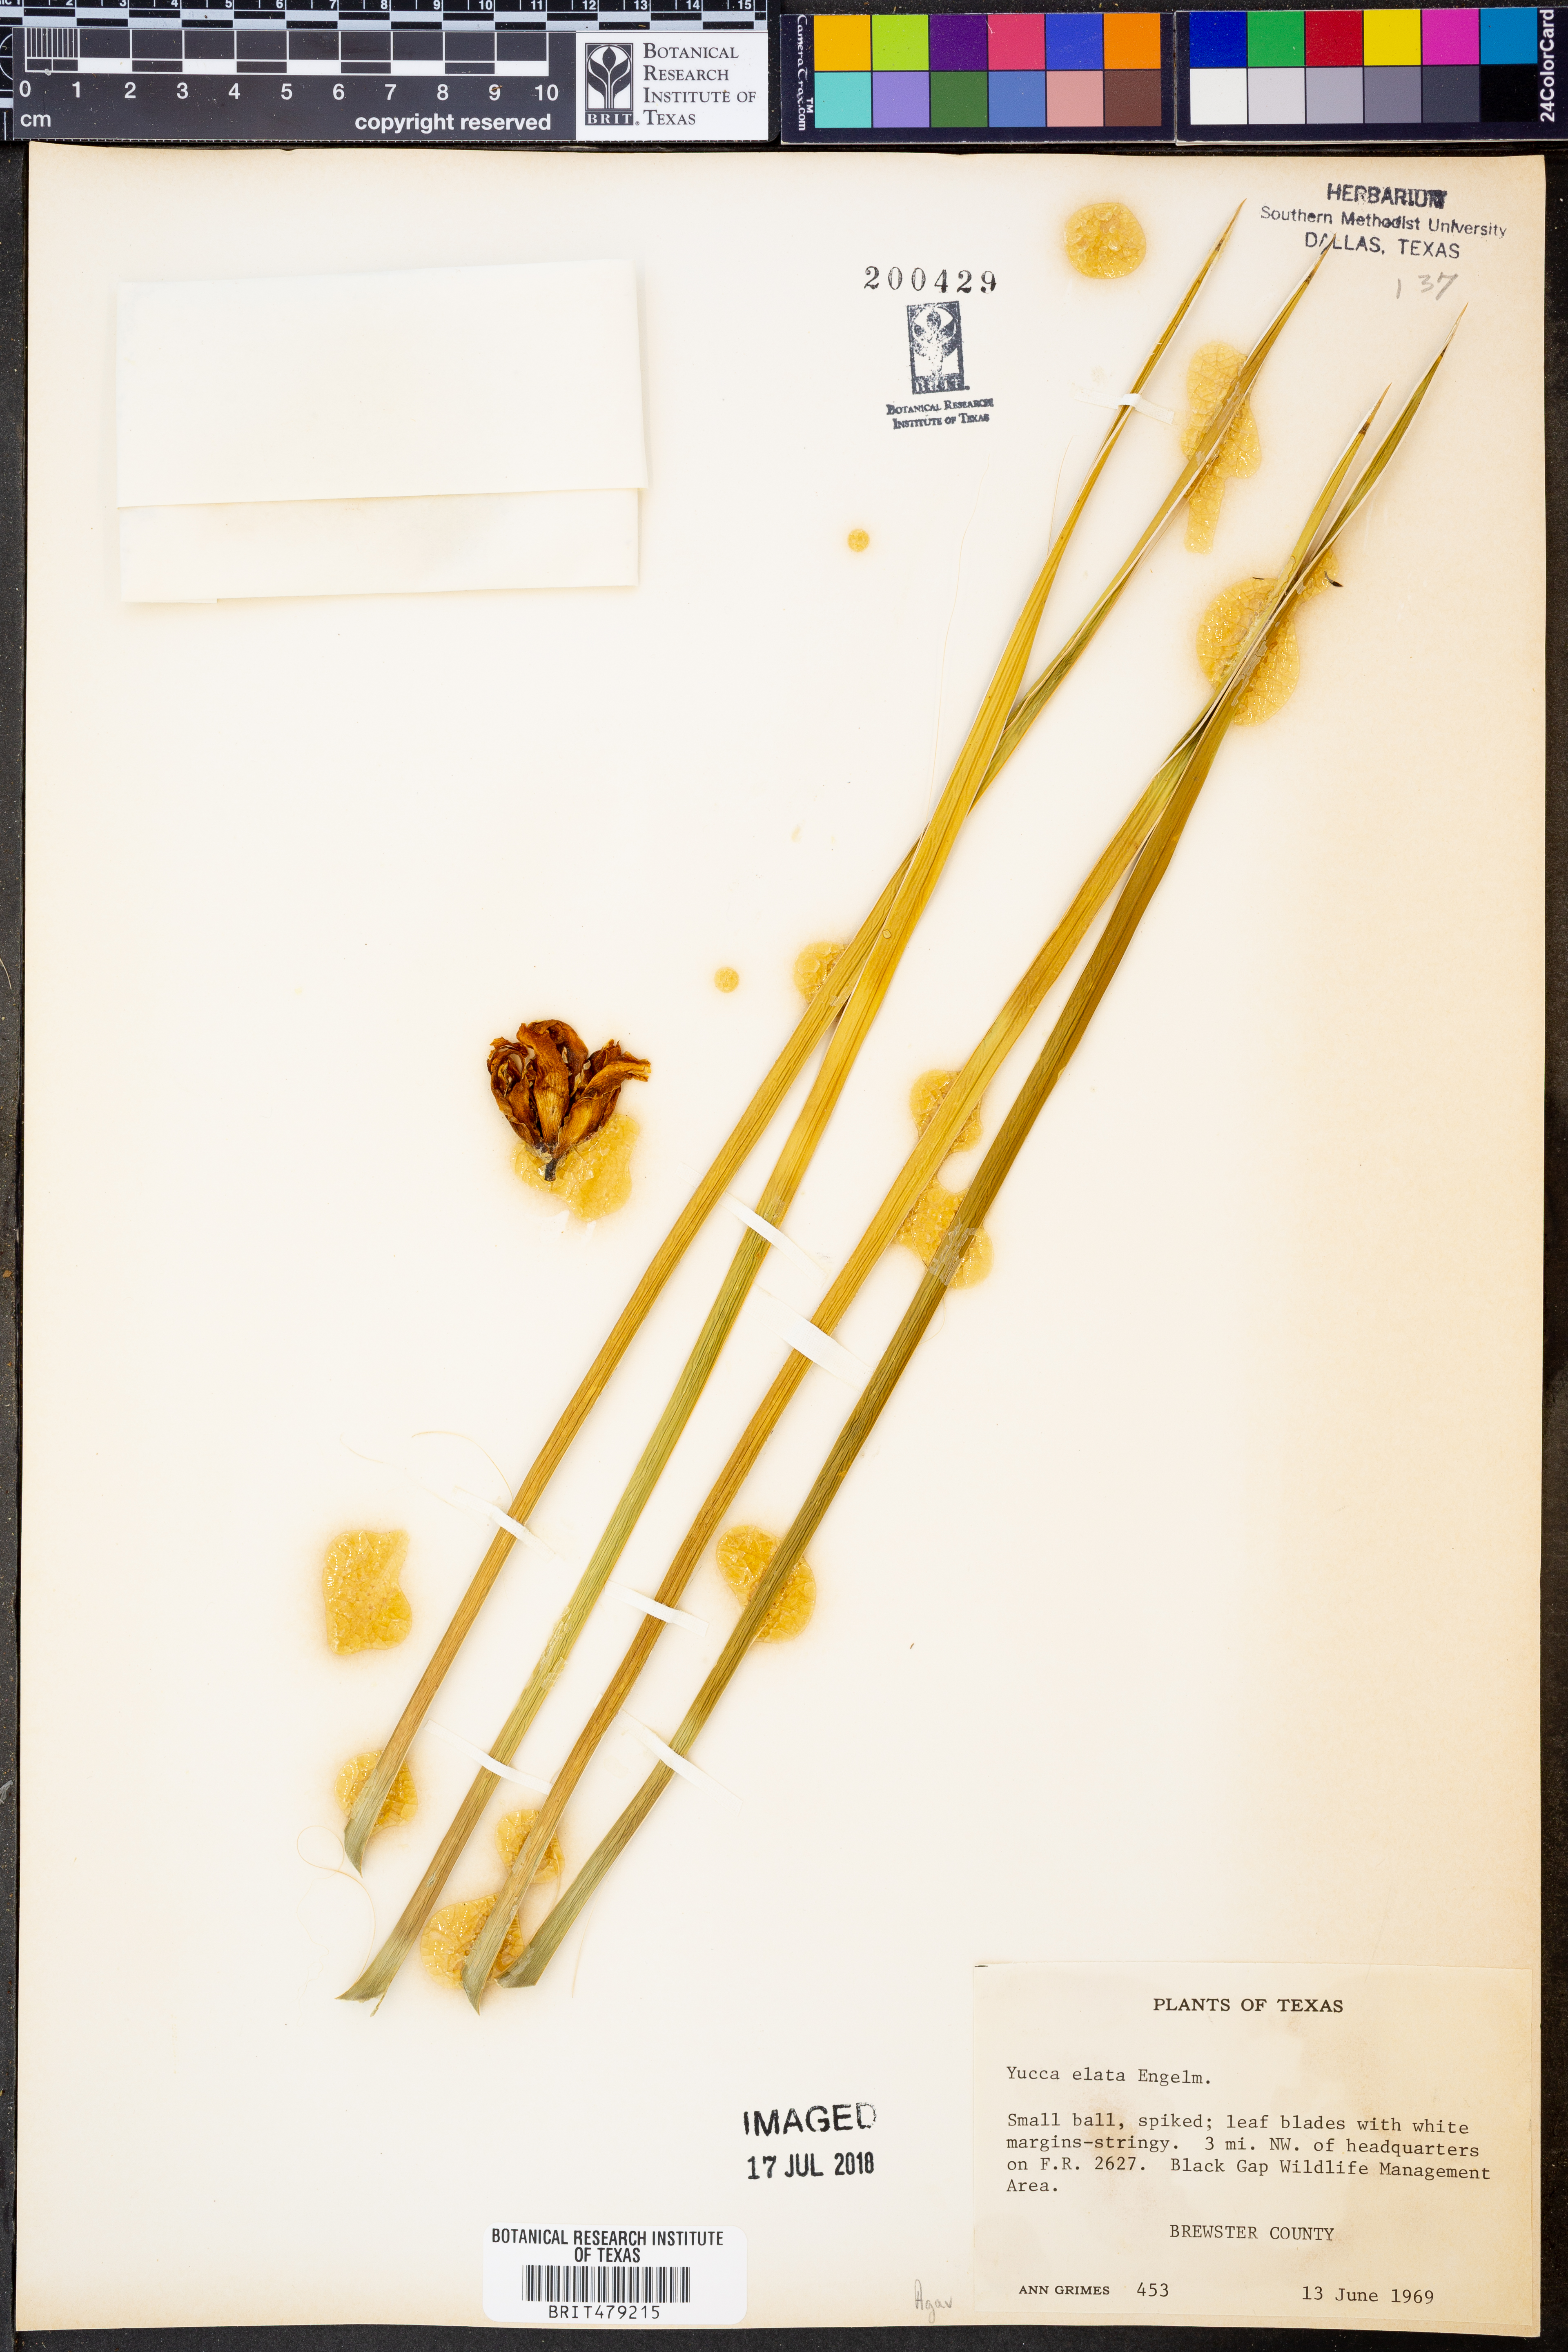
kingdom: Plantae
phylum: Tracheophyta
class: Liliopsida
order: Asparagales
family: Asparagaceae
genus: Yucca
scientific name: Yucca elata
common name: Palmella
